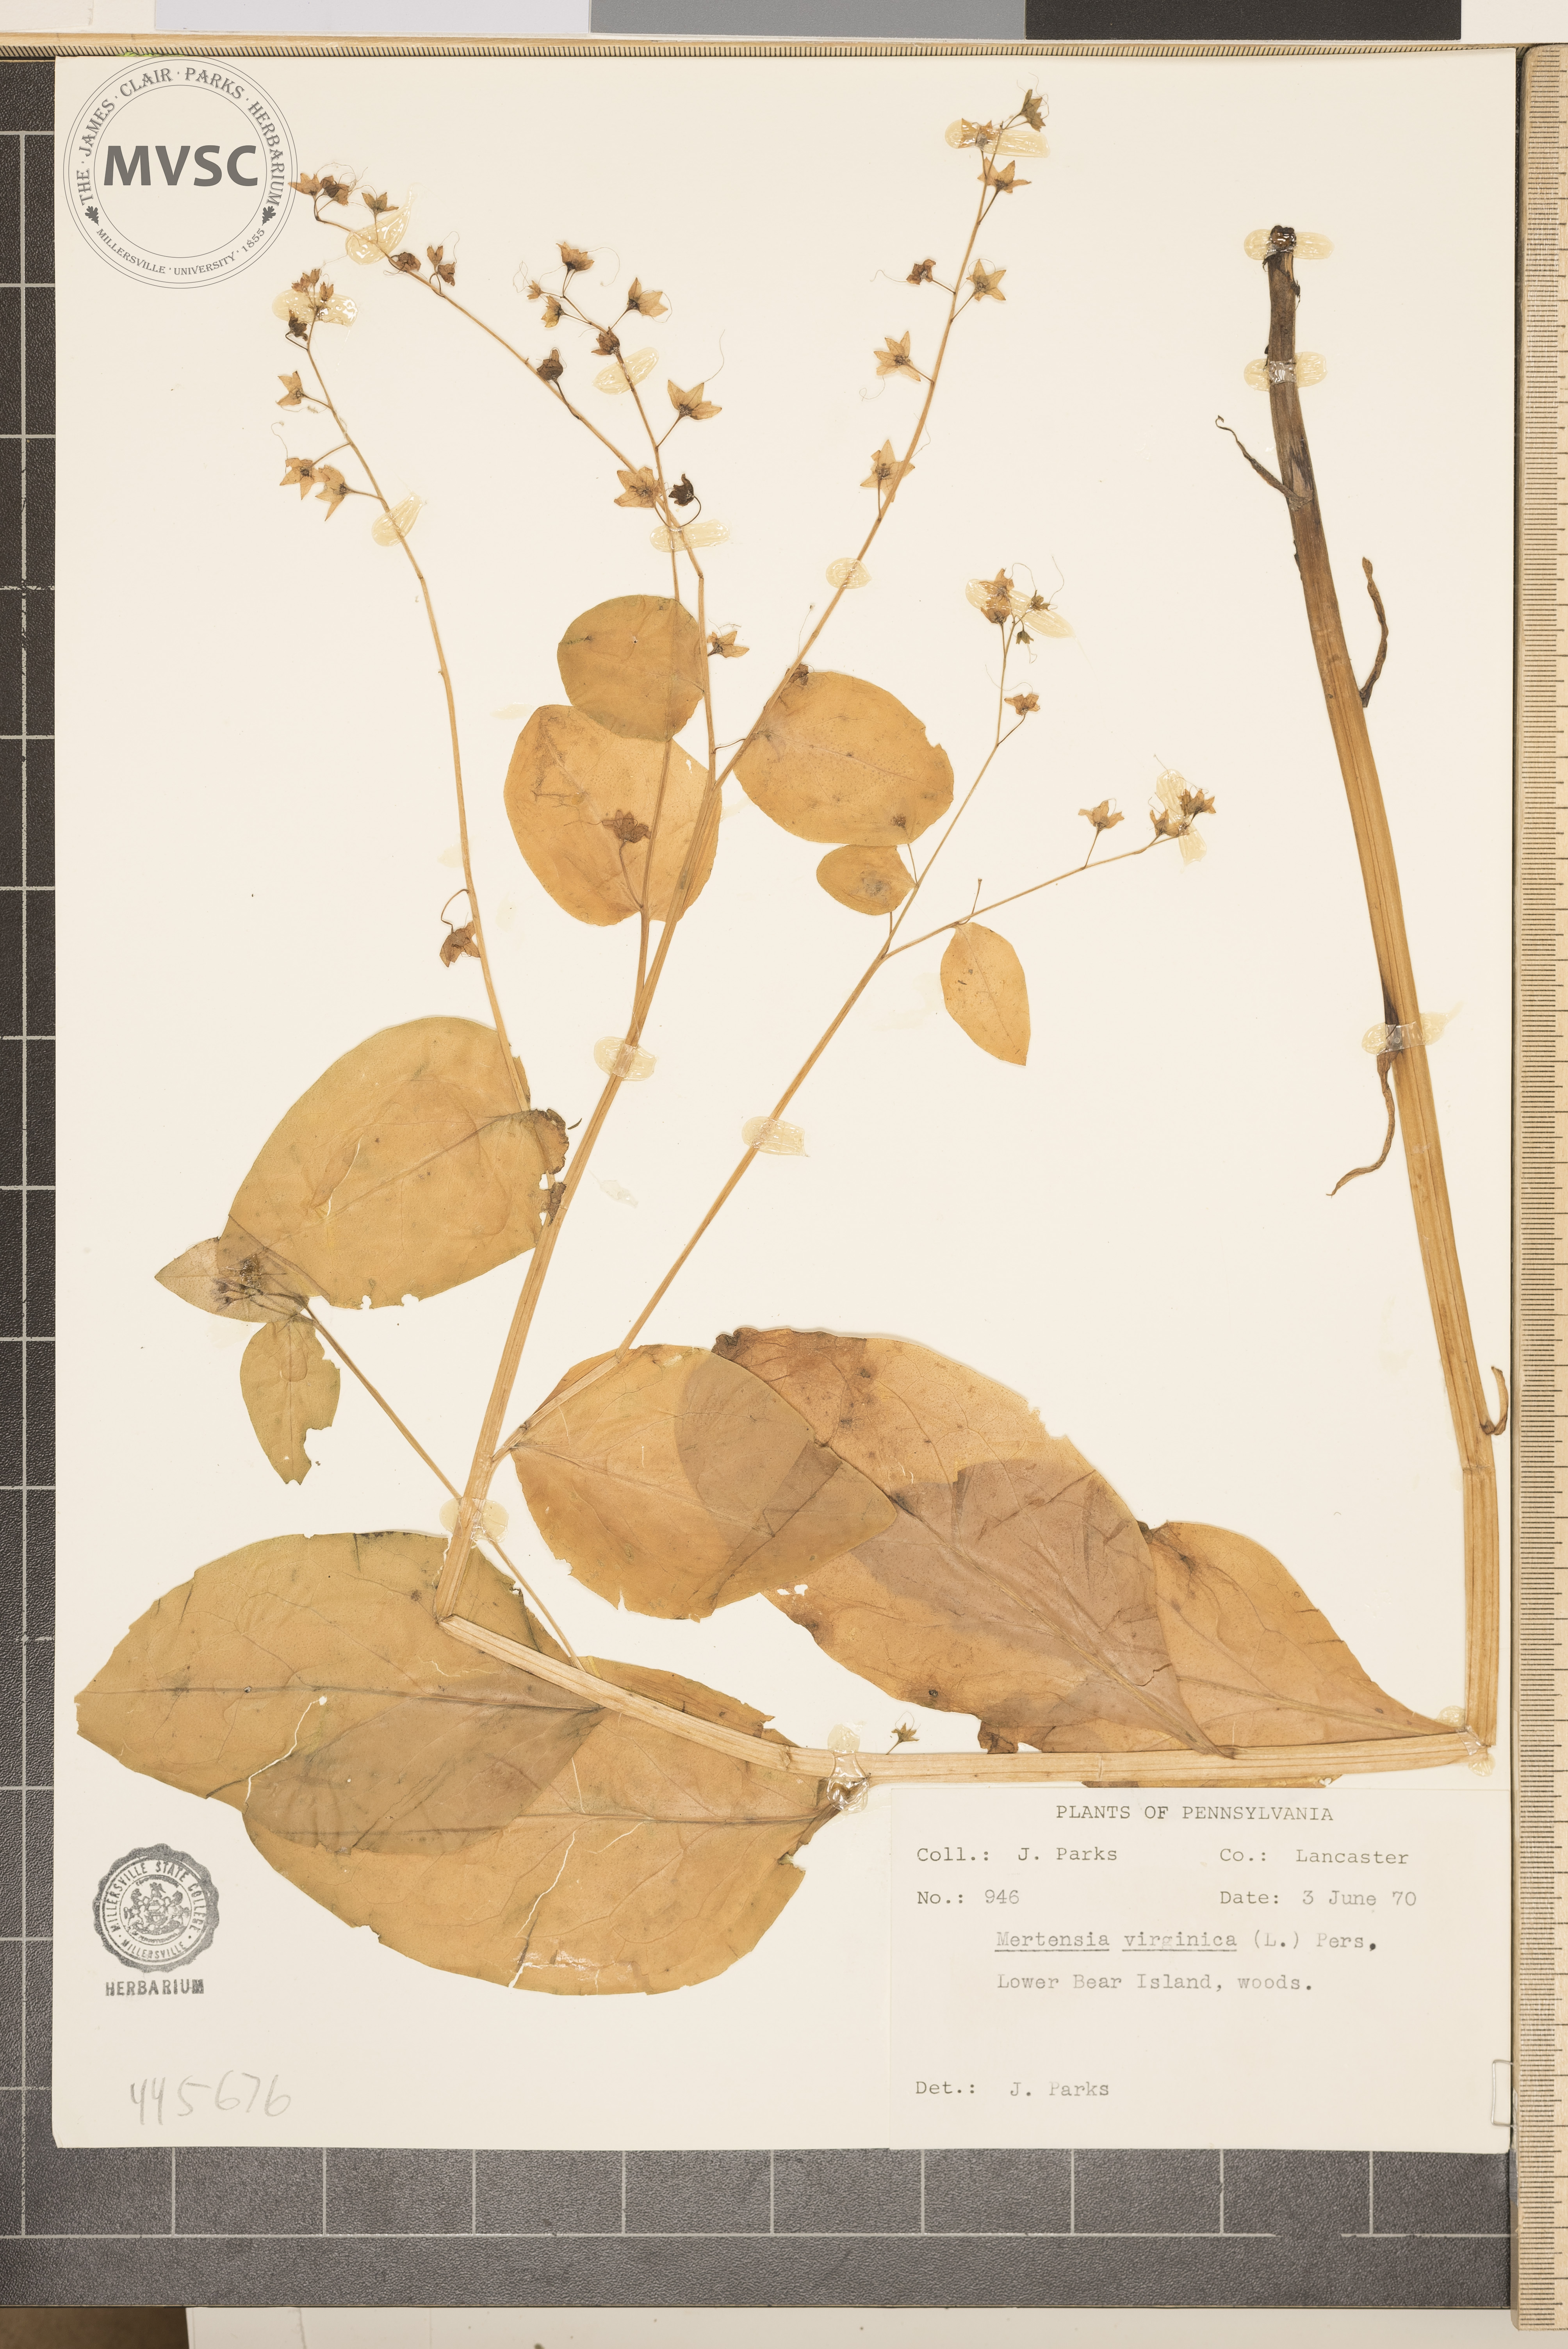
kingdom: Plantae
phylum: Tracheophyta
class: Magnoliopsida
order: Boraginales
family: Boraginaceae
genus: Mertensia
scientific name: Mertensia virginica
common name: Virginia bluebells
